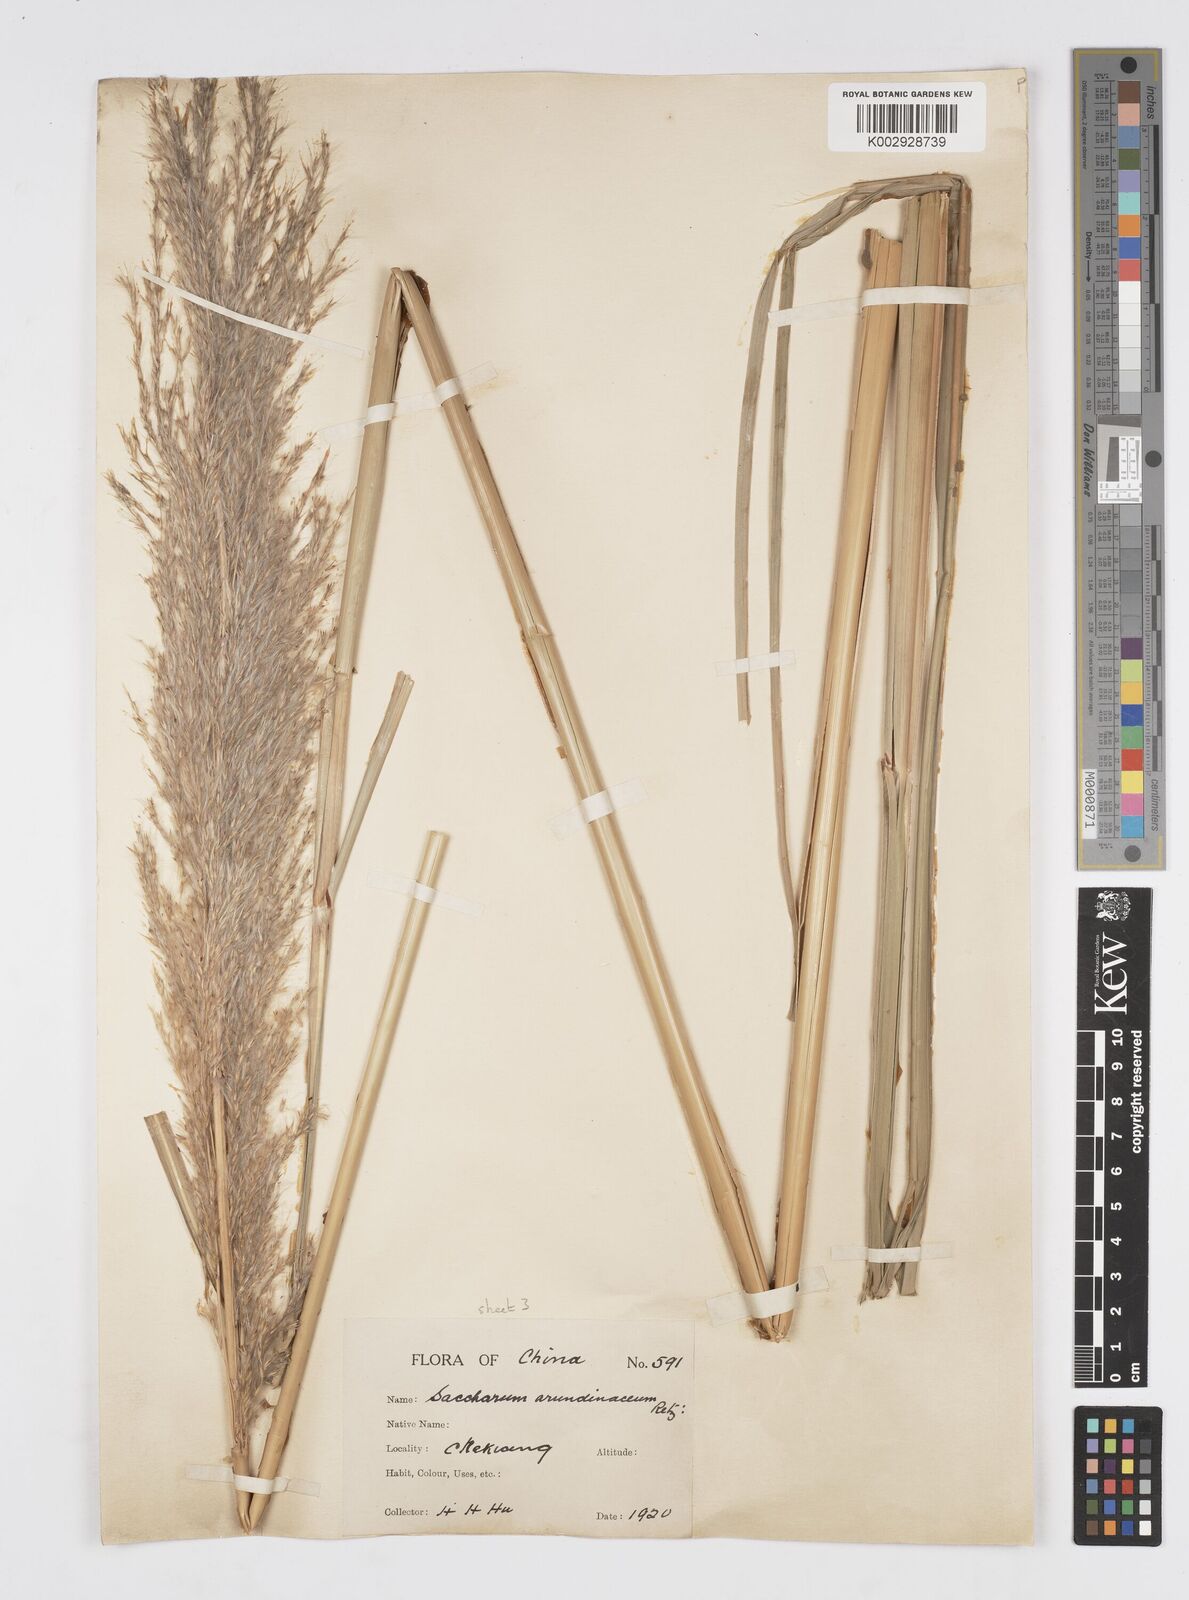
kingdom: Plantae
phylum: Tracheophyta
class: Liliopsida
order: Poales
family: Poaceae
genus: Tripidium
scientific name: Tripidium arundinaceum
